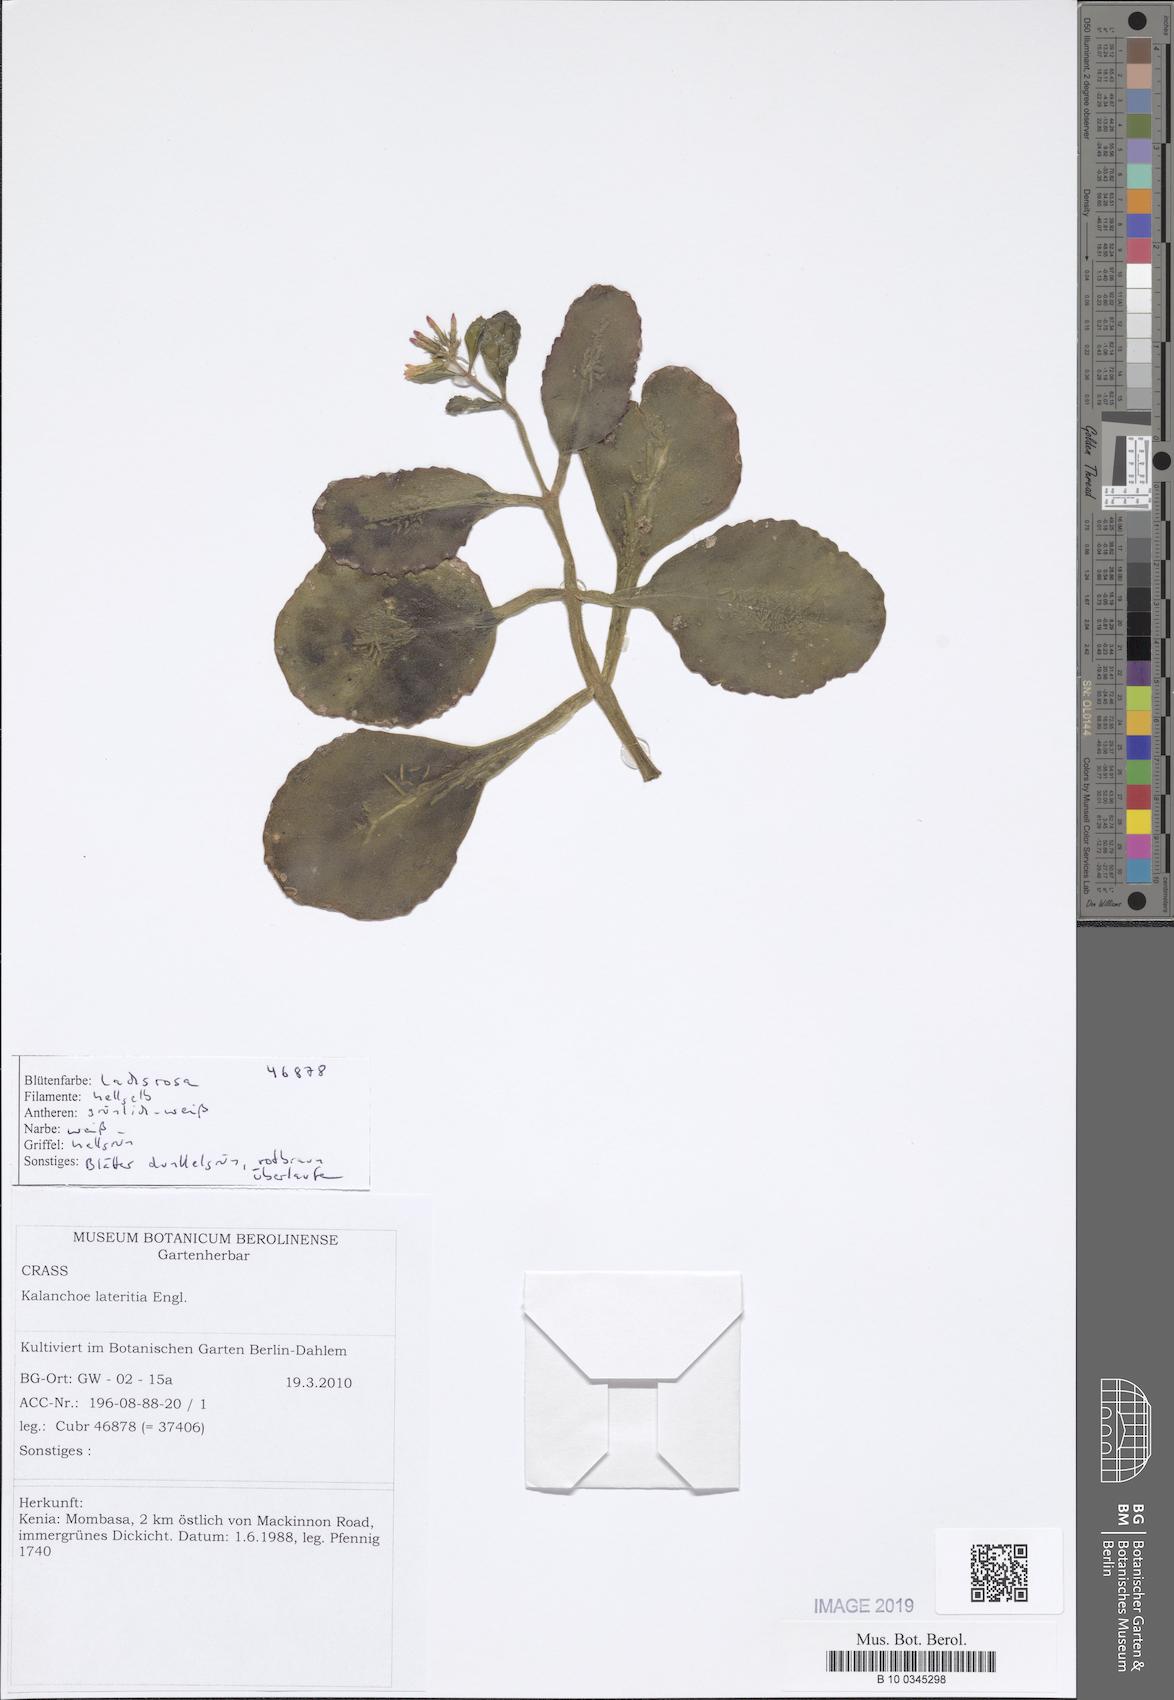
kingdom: Plantae
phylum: Tracheophyta
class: Magnoliopsida
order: Saxifragales
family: Crassulaceae
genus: Kalanchoe
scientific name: Kalanchoe lateritia
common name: Kalanchoe
